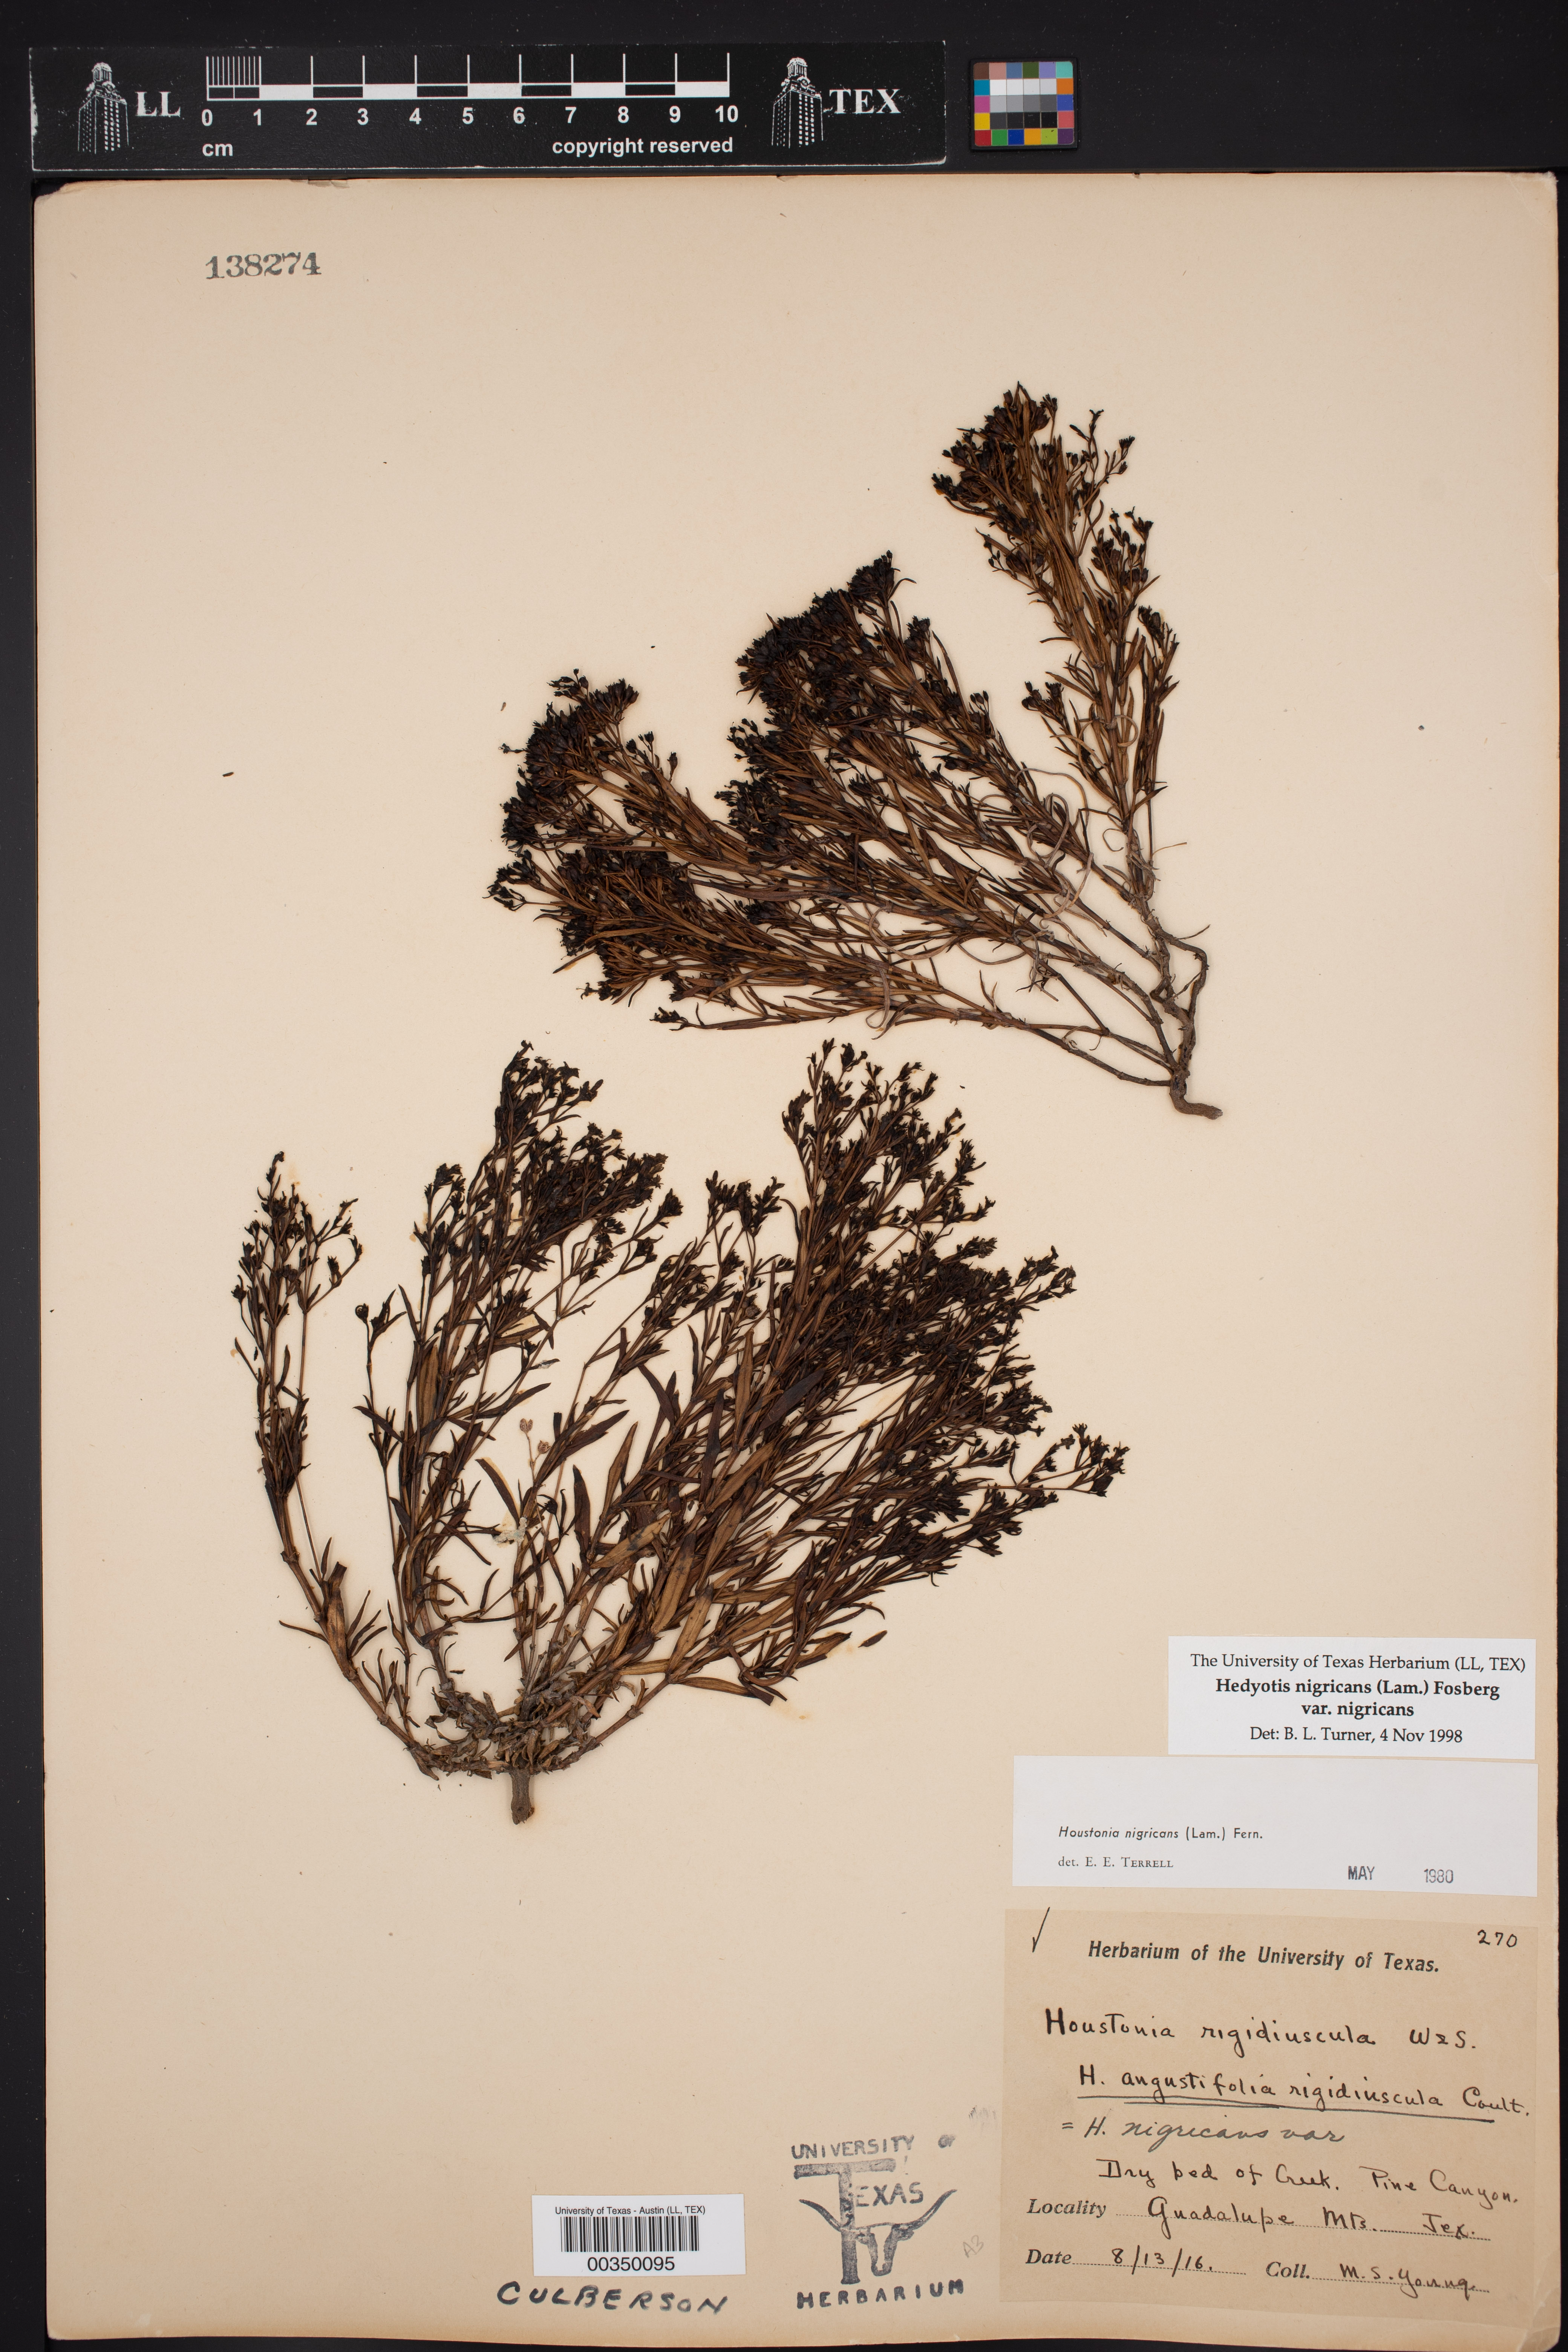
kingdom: Plantae
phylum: Tracheophyta
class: Magnoliopsida
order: Gentianales
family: Rubiaceae
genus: Stenaria
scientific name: Stenaria nigricans
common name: Diamondflowers
